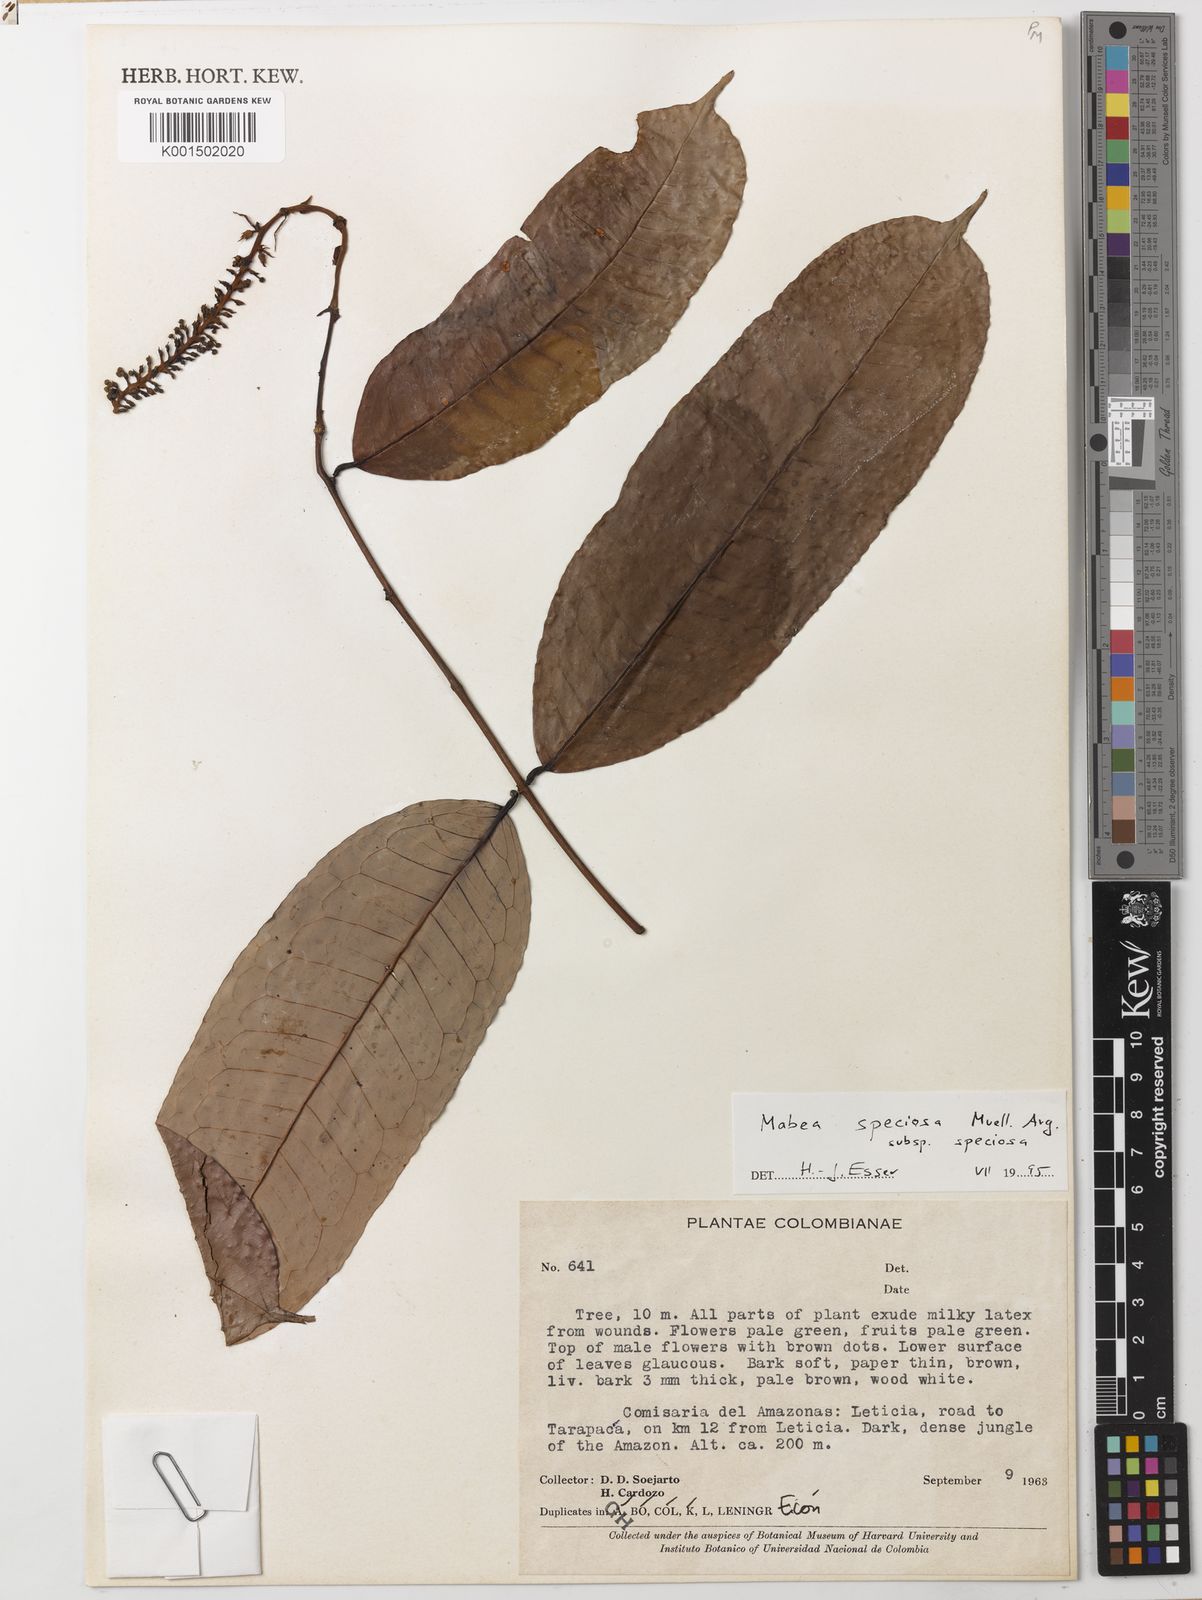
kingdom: Plantae
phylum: Tracheophyta
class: Magnoliopsida
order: Malpighiales
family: Euphorbiaceae
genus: Mabea
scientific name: Mabea speciosa
